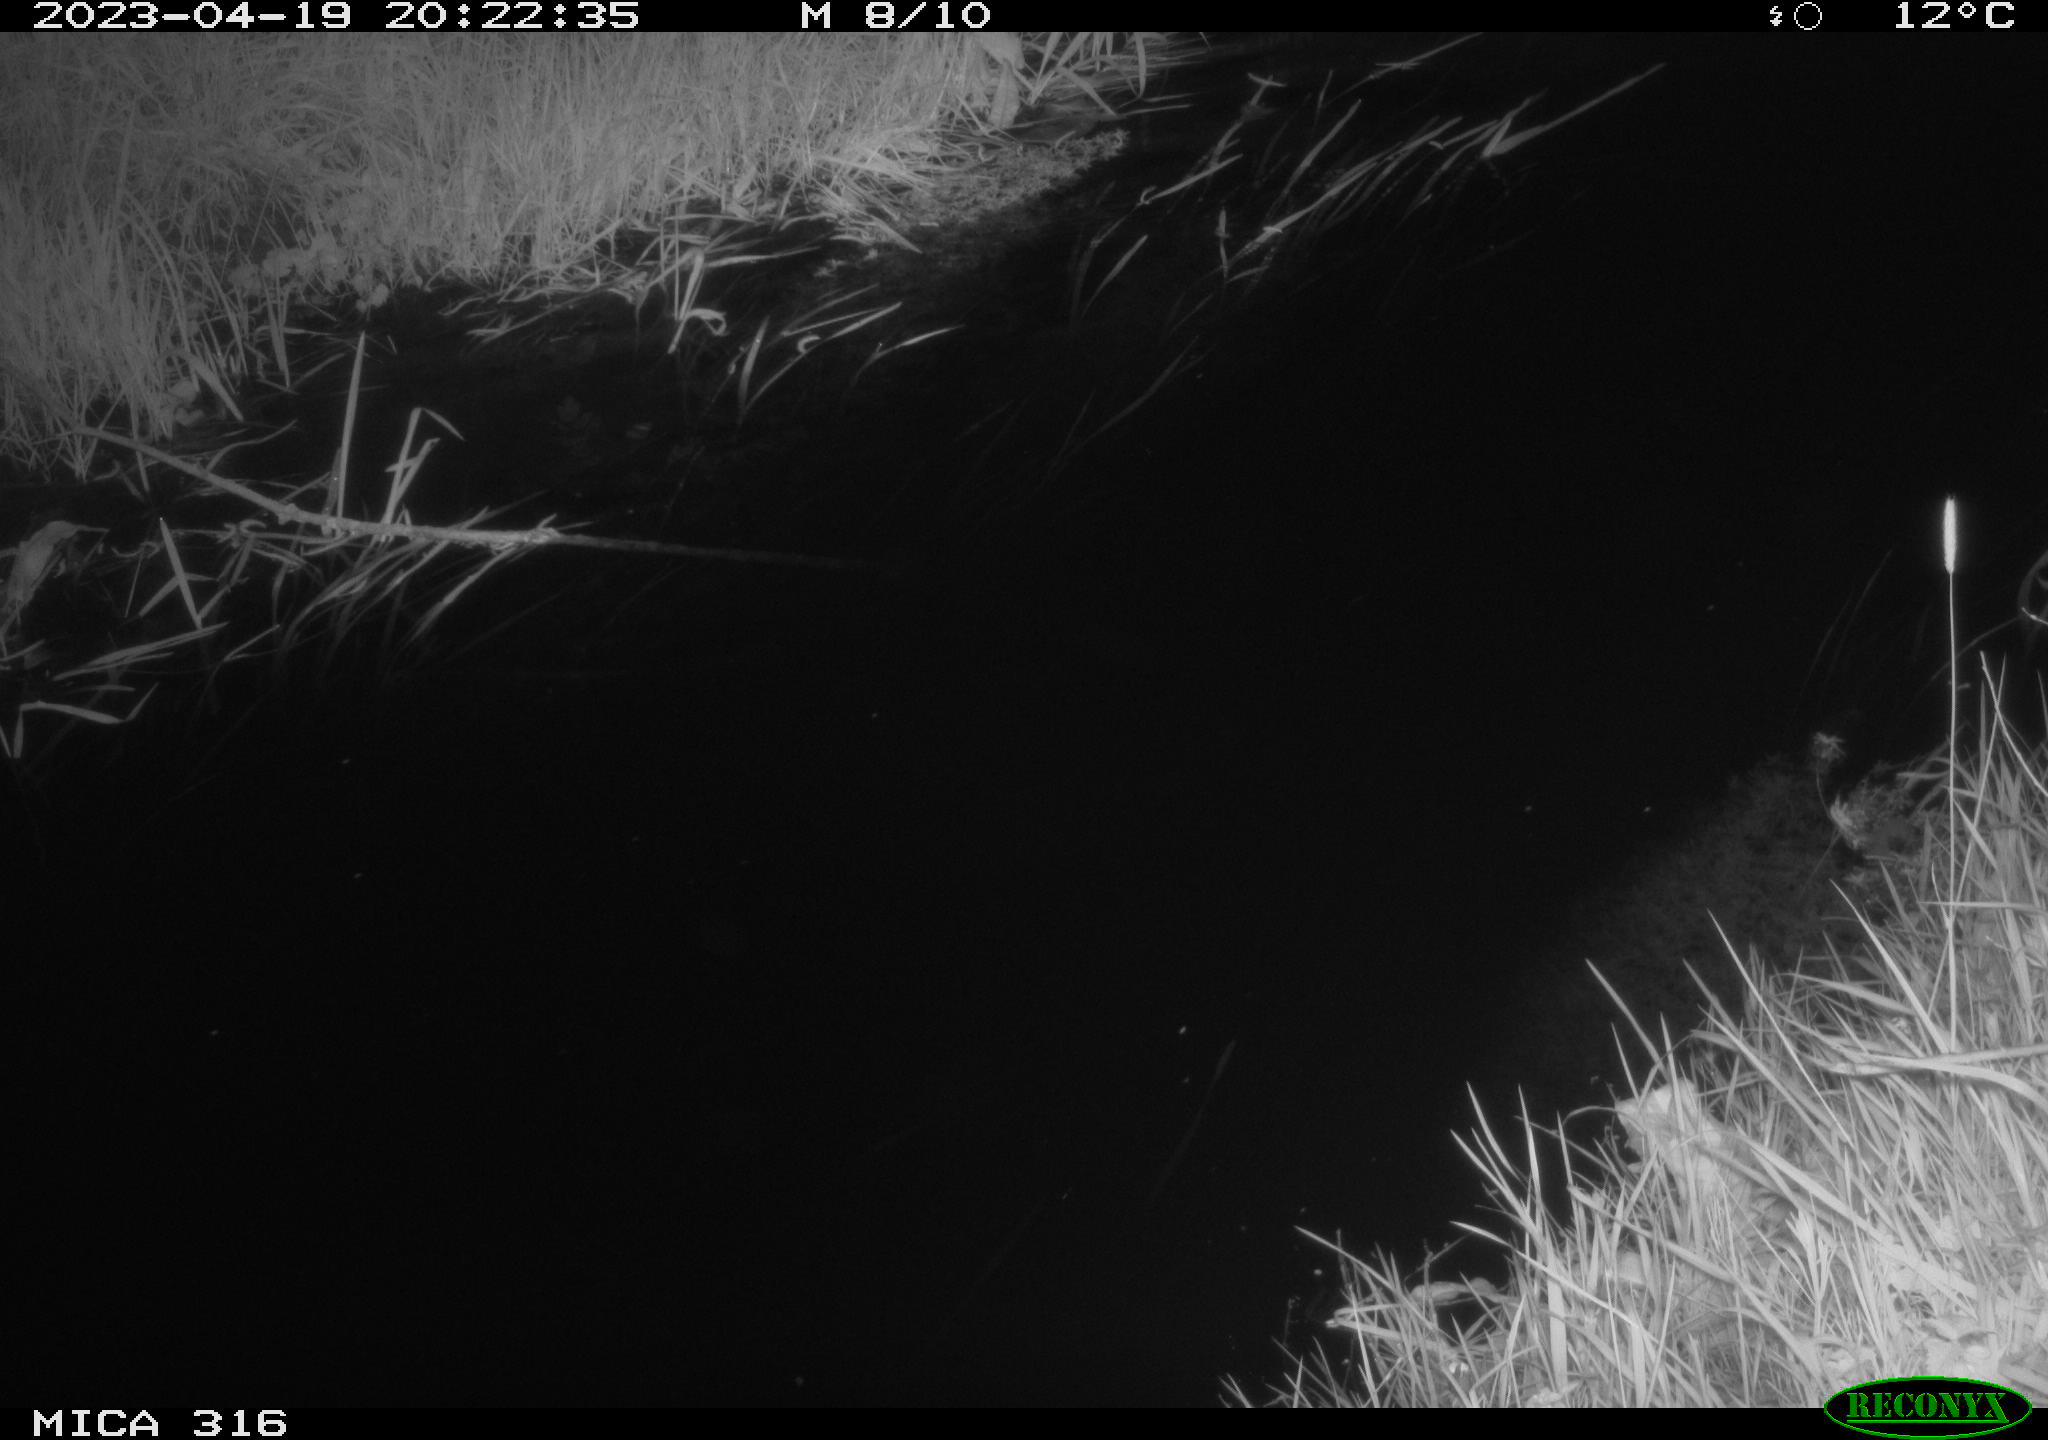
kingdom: Animalia
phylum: Chordata
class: Aves
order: Anseriformes
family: Anatidae
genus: Anas
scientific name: Anas
